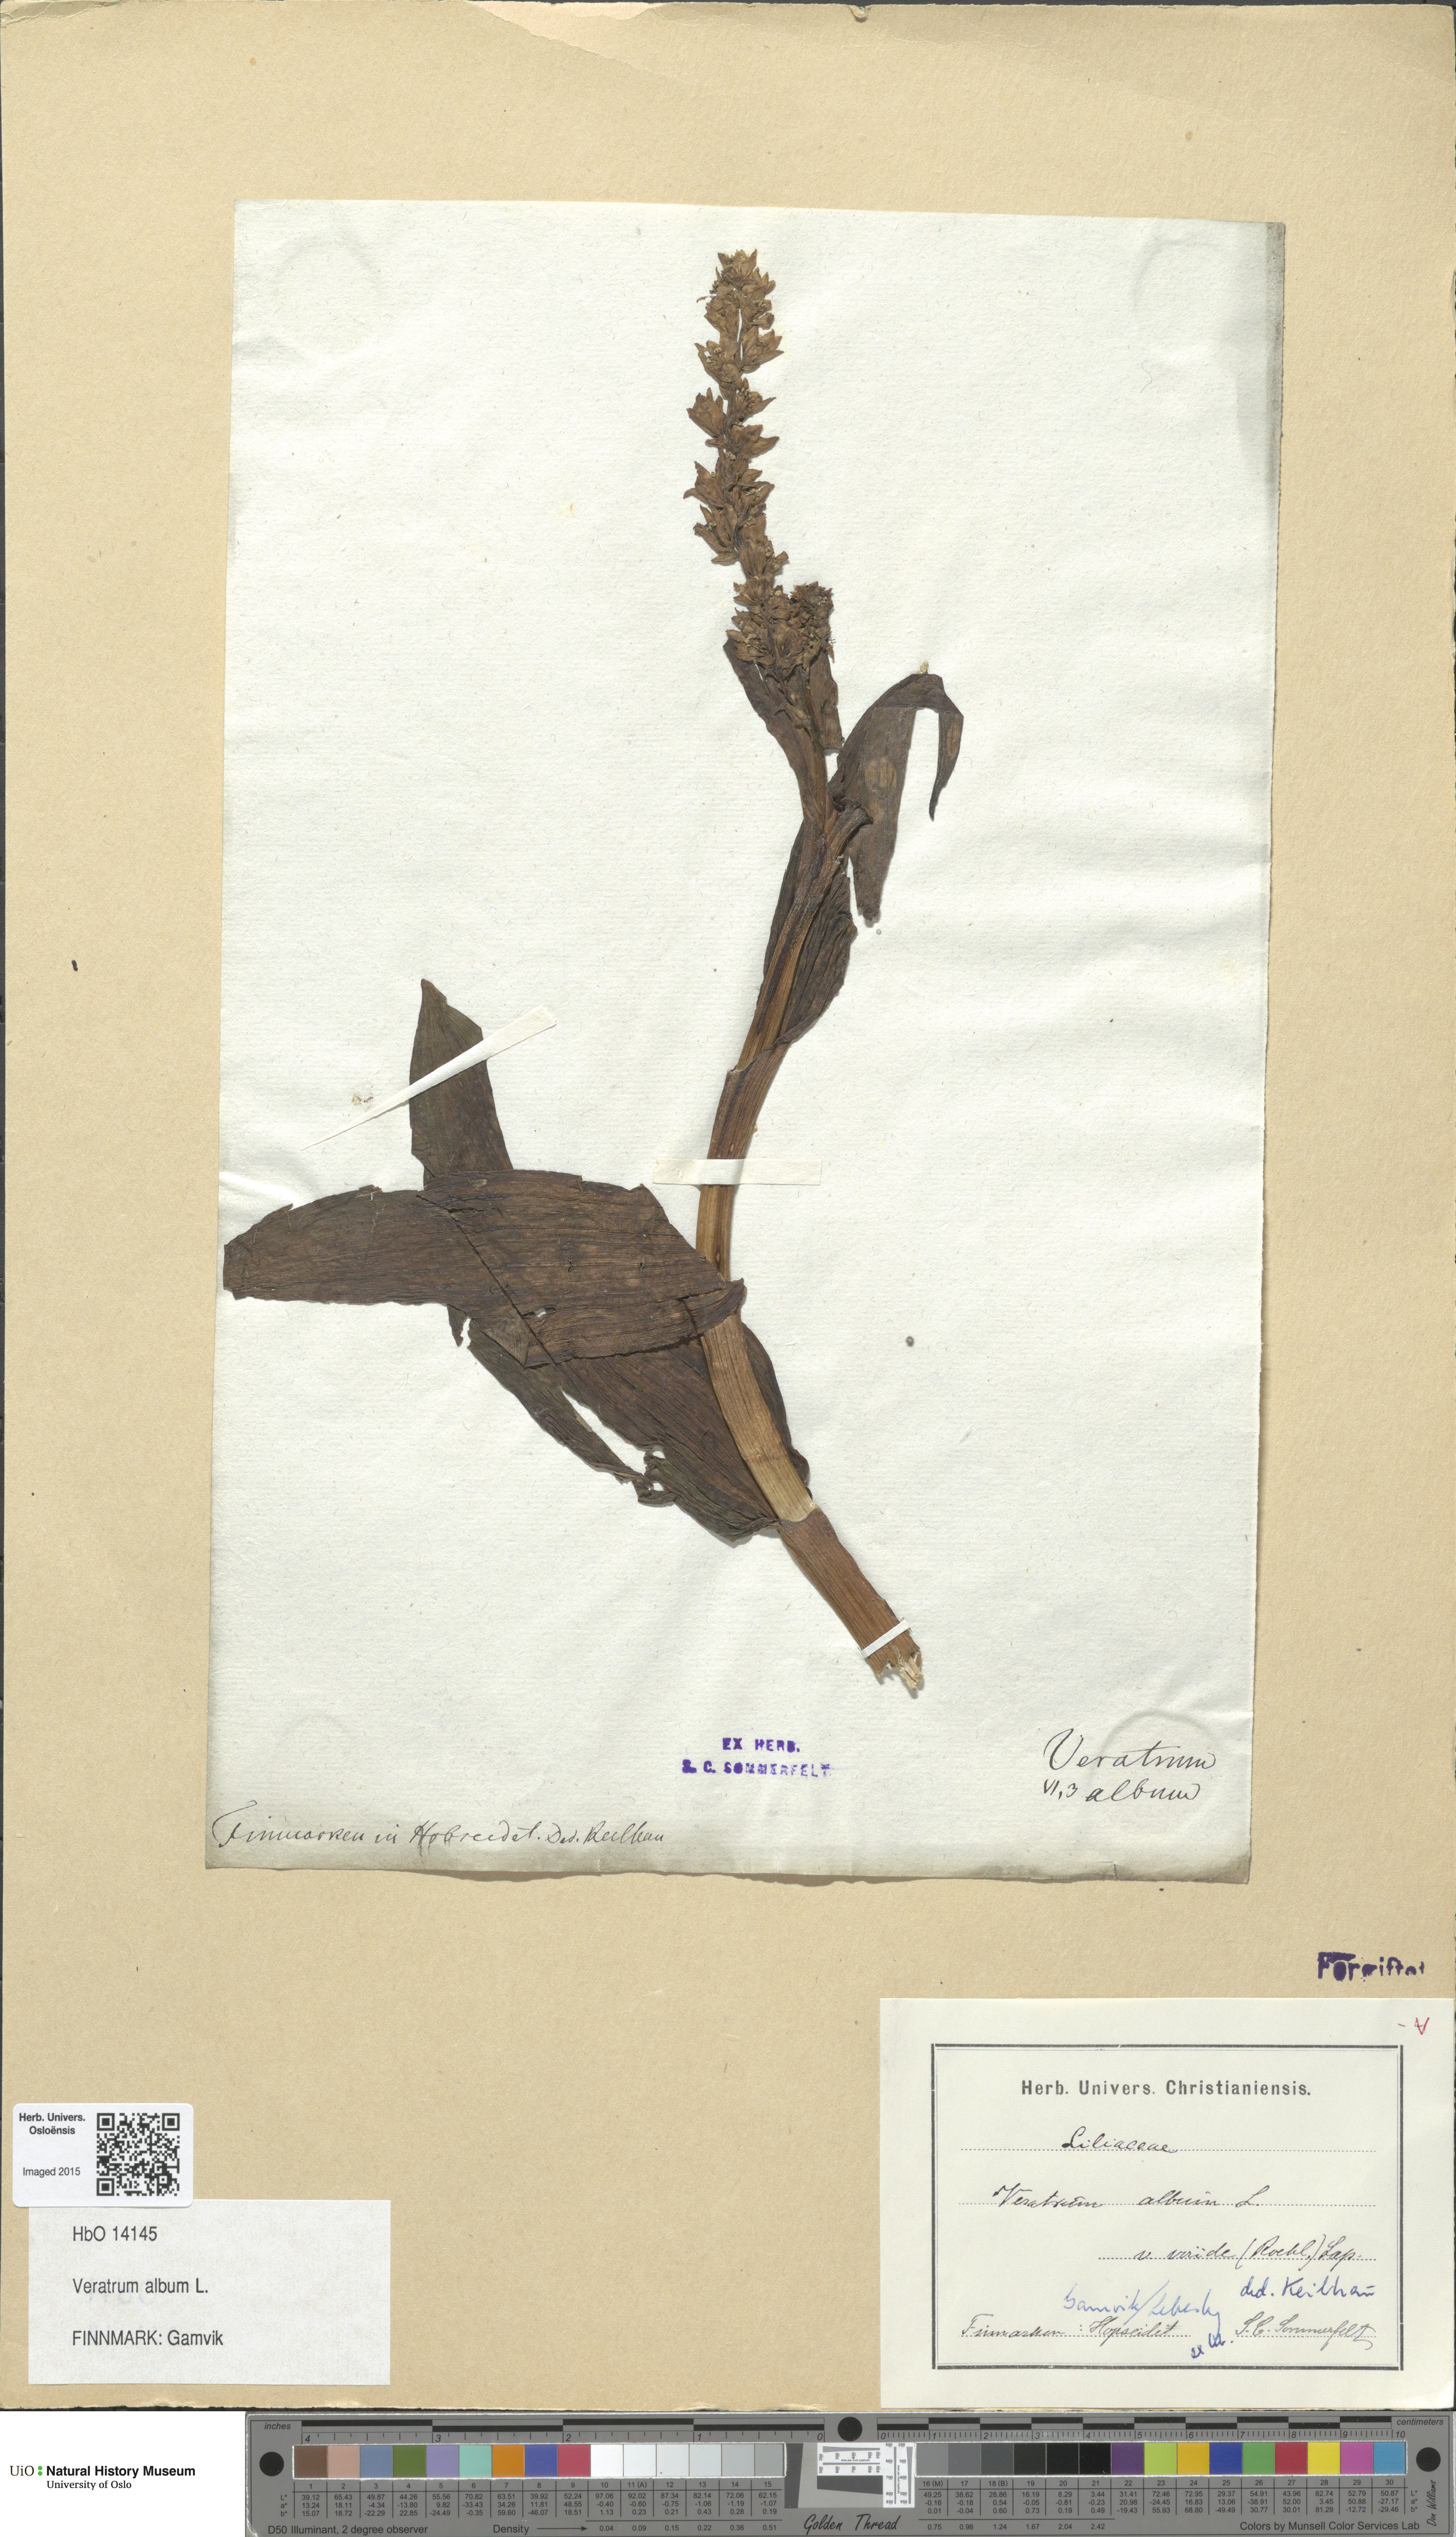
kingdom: Plantae
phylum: Tracheophyta
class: Liliopsida
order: Liliales
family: Melanthiaceae
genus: Veratrum
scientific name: Veratrum album
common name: White veratrum
